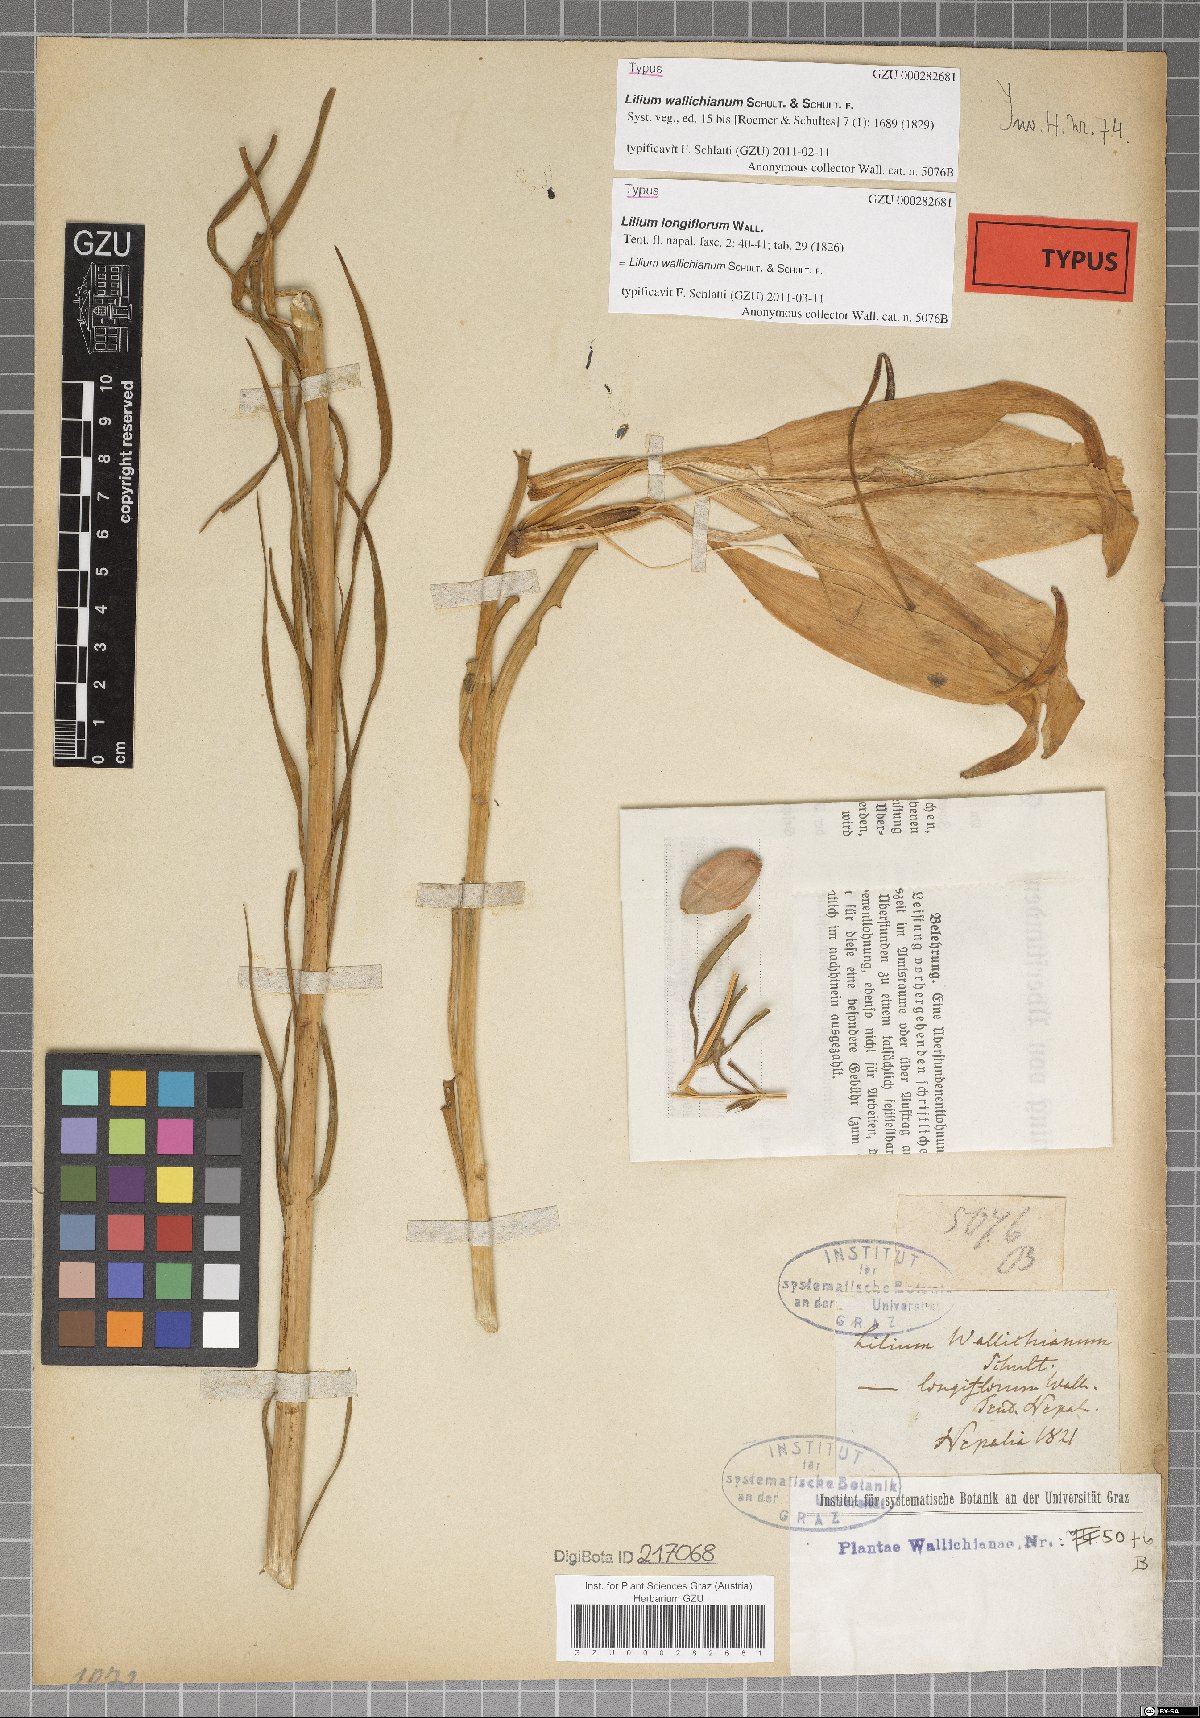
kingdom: Plantae
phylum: Tracheophyta
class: Liliopsida
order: Liliales
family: Liliaceae
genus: Lilium
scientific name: Lilium wallichianum
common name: Wallich's lily
